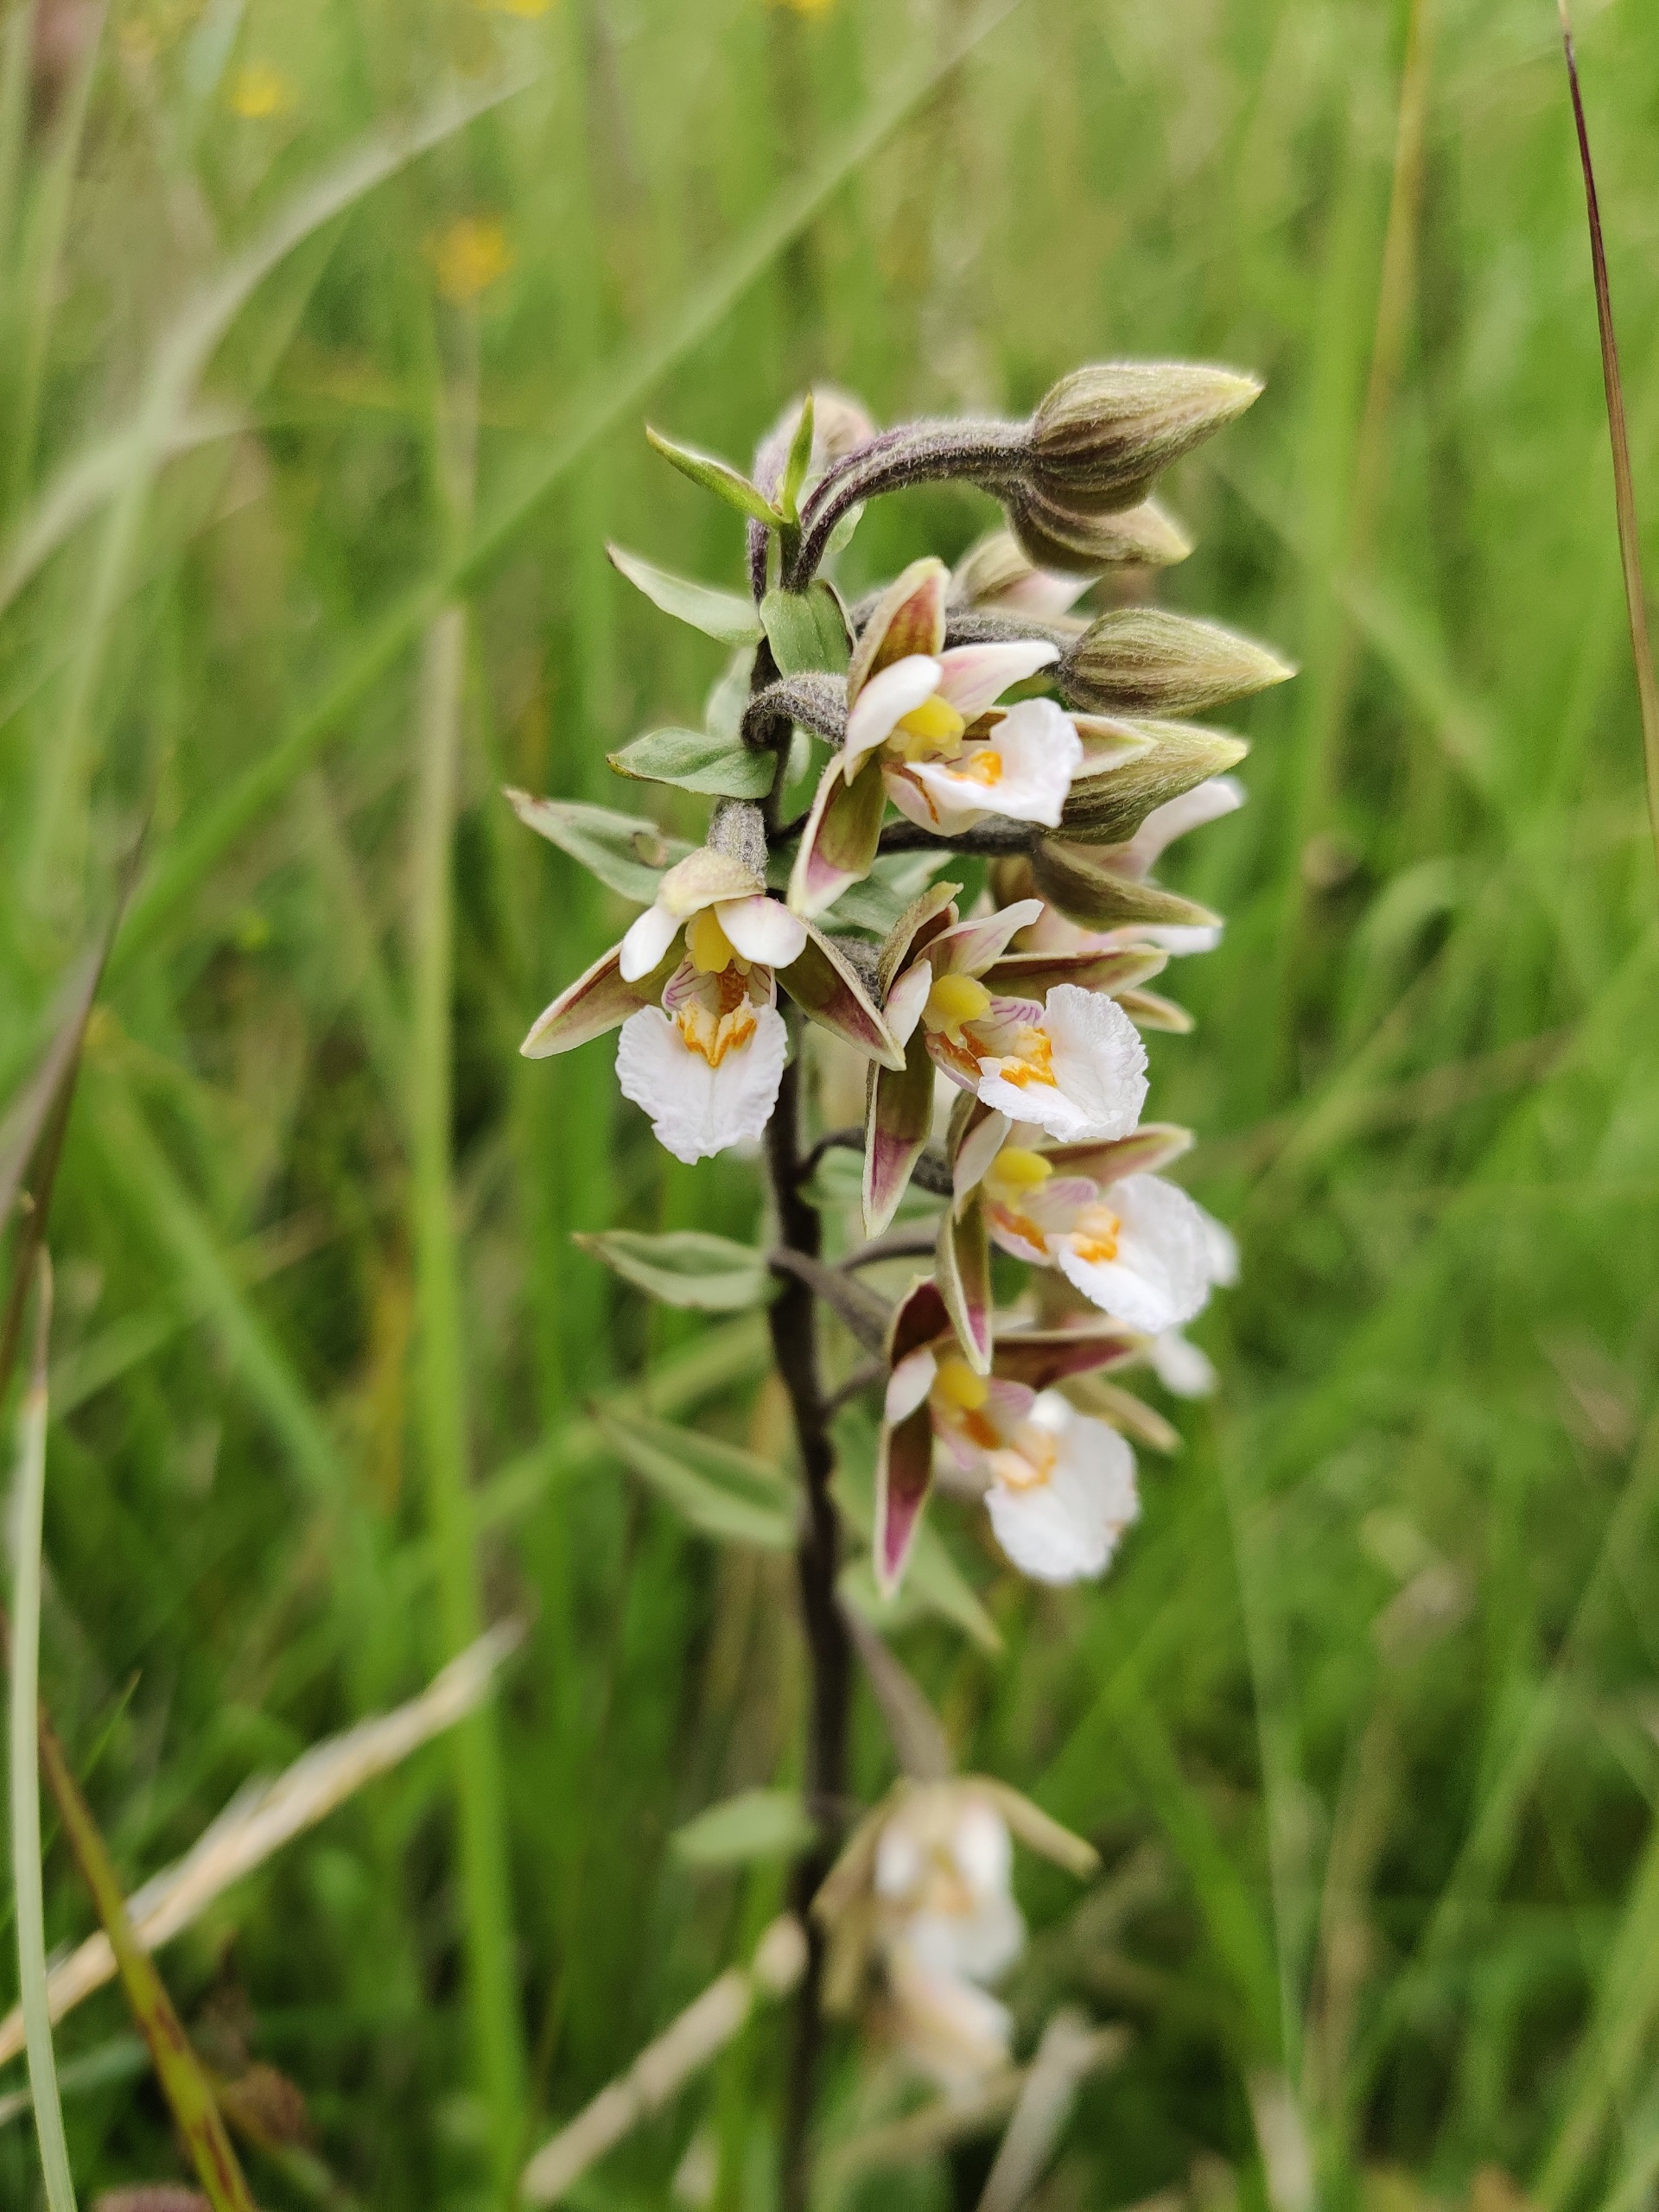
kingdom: Plantae
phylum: Tracheophyta
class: Liliopsida
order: Asparagales
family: Orchidaceae
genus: Epipactis
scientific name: Epipactis palustris
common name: Sump-hullæbe
